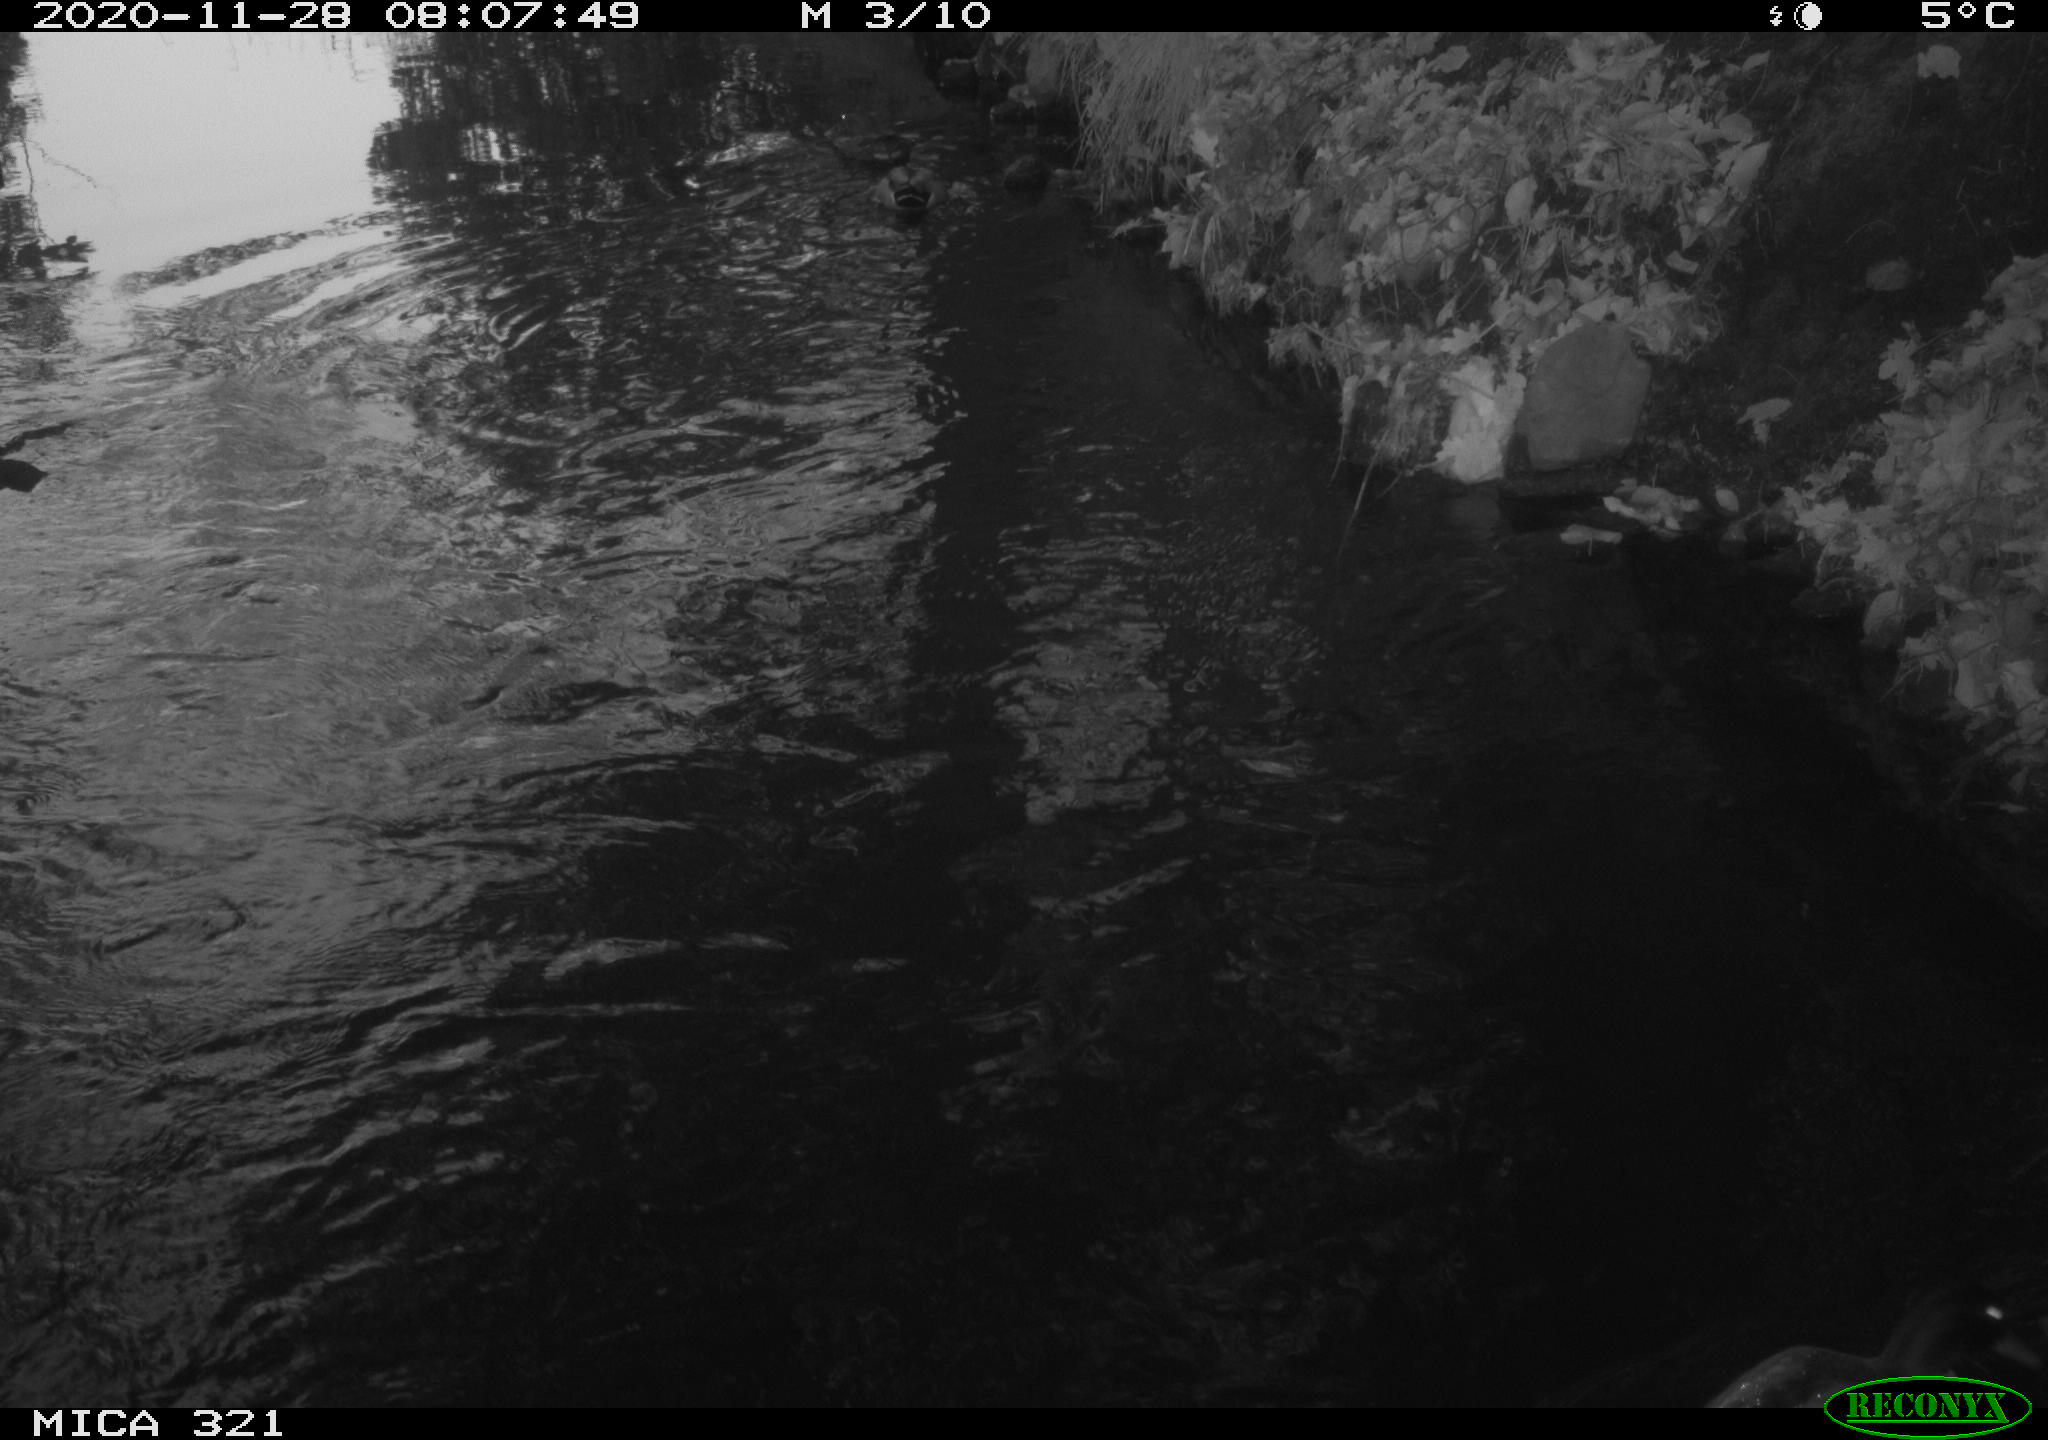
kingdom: Animalia
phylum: Chordata
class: Aves
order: Anseriformes
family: Anatidae
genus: Anas
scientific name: Anas platyrhynchos
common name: Mallard
